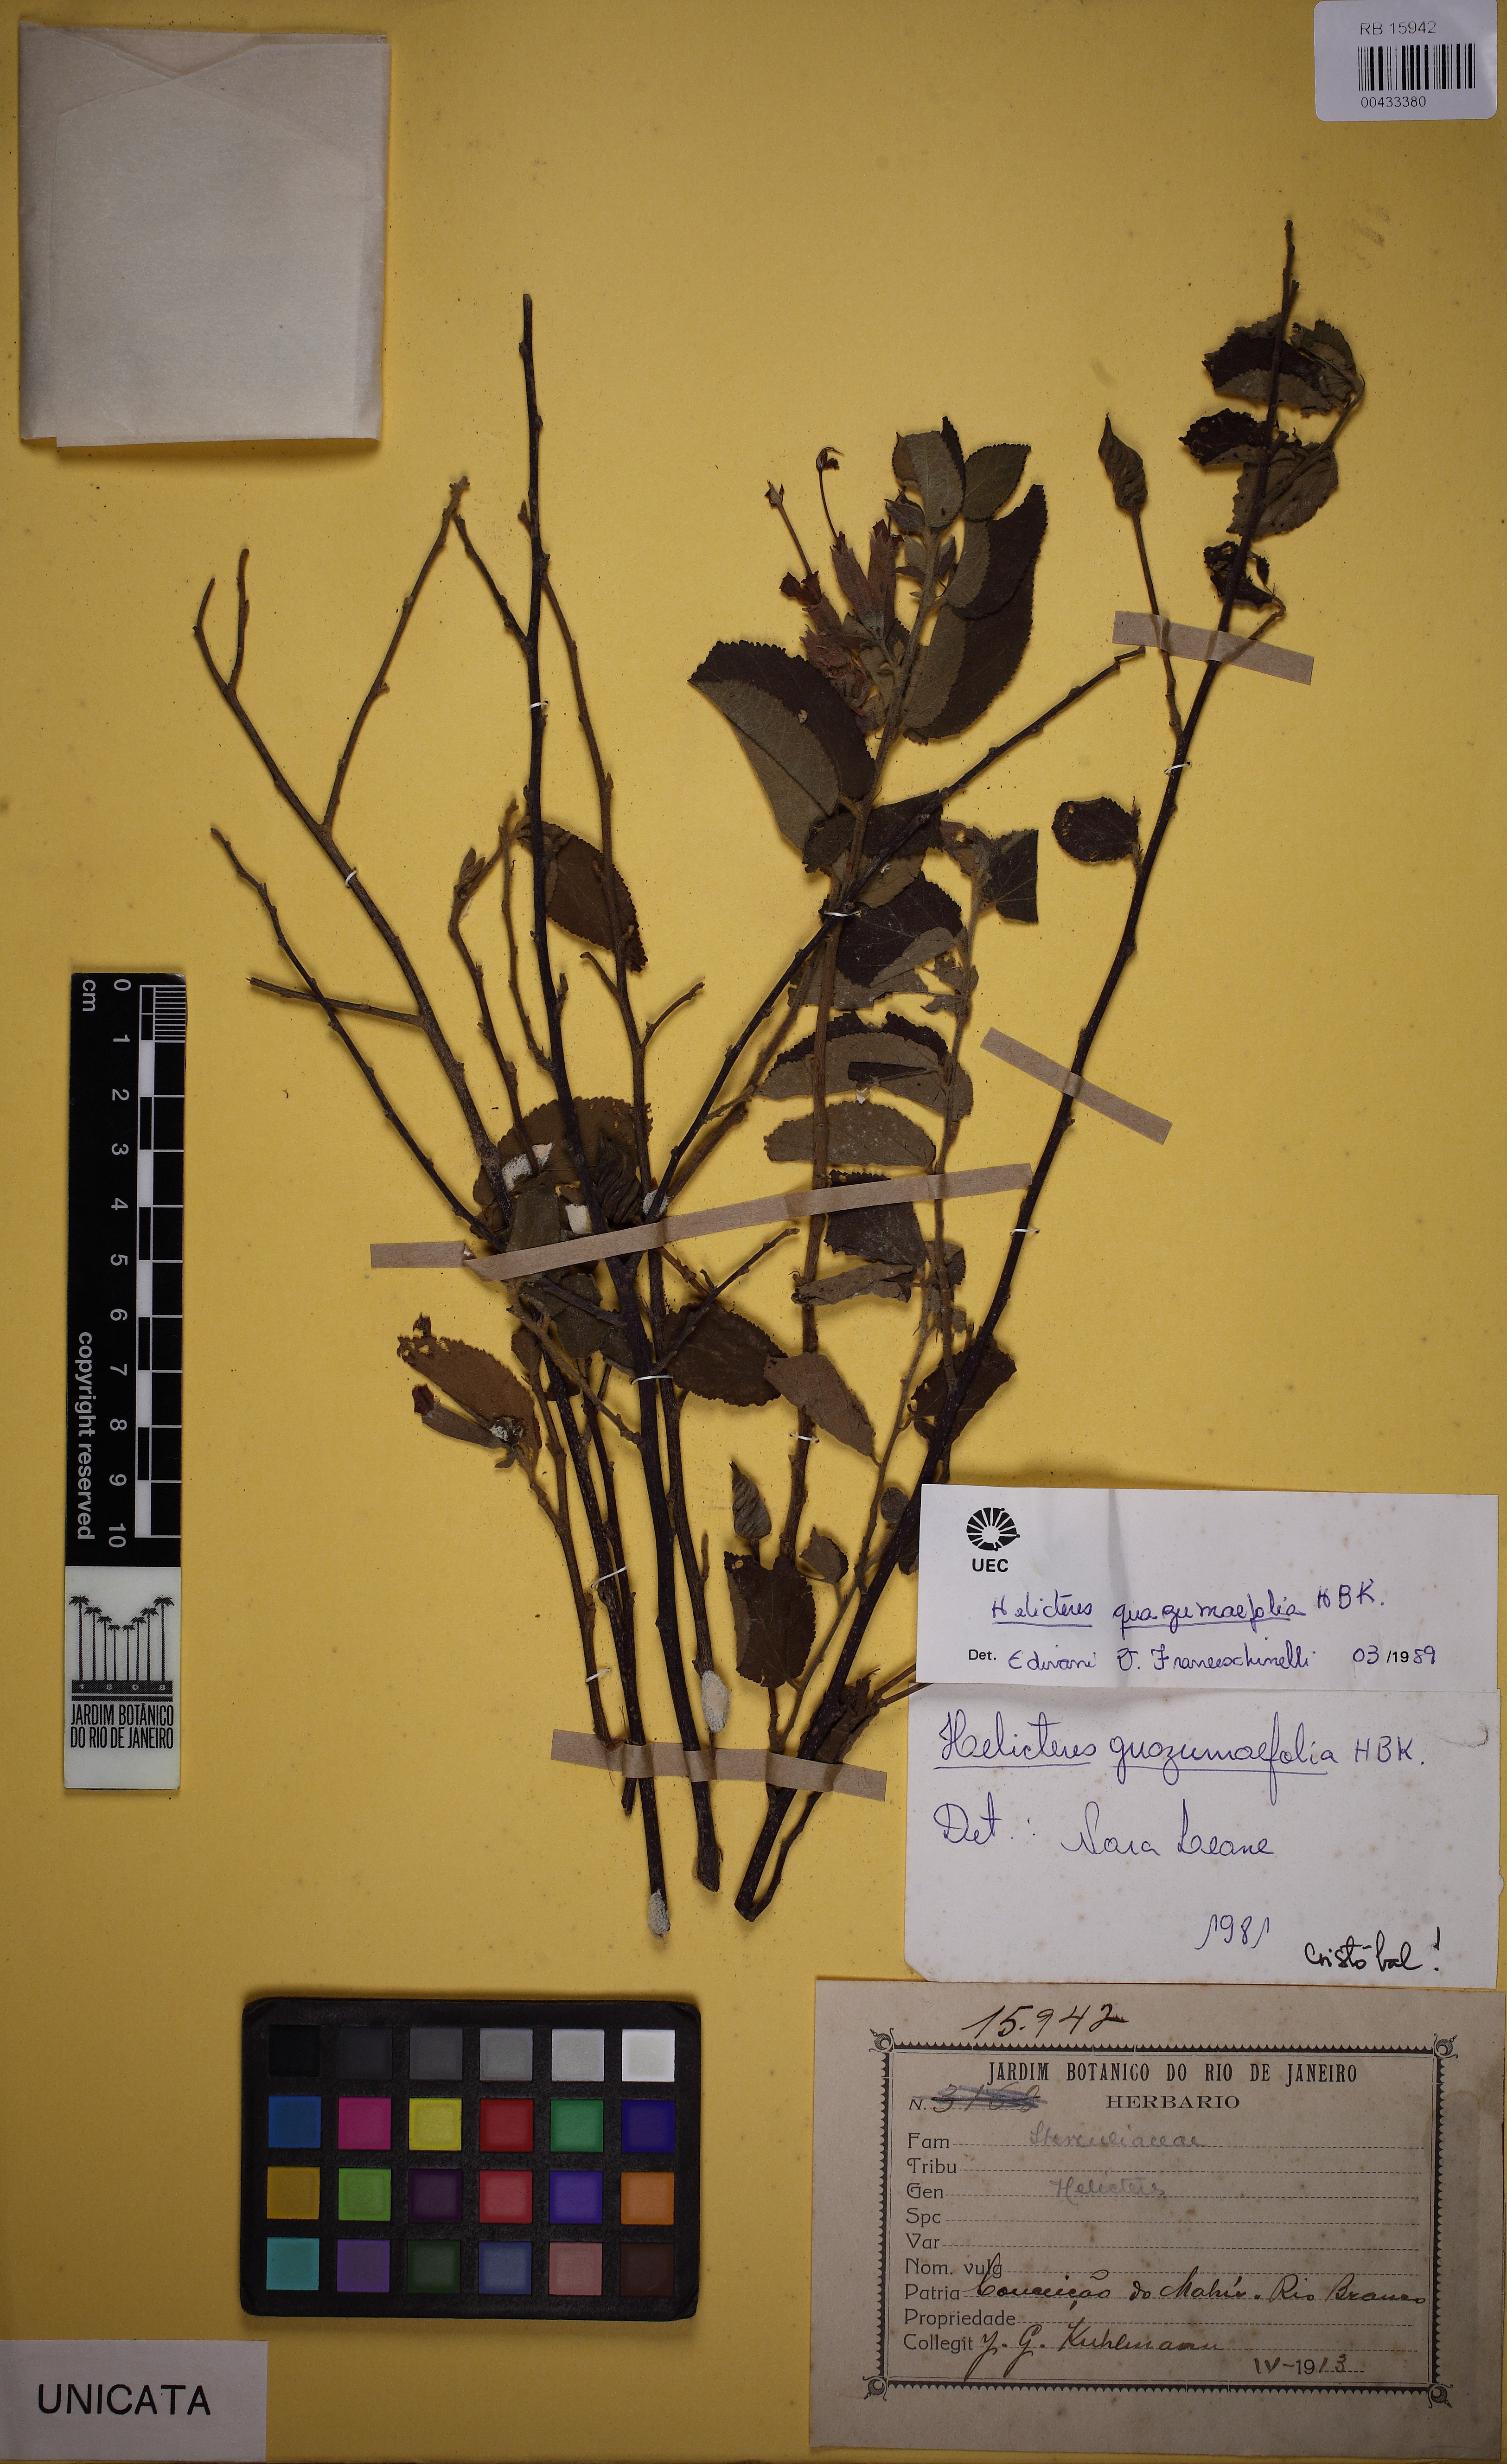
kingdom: Plantae
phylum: Tracheophyta
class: Magnoliopsida
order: Malvales
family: Malvaceae
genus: Helicteres
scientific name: Helicteres guazumifolia
